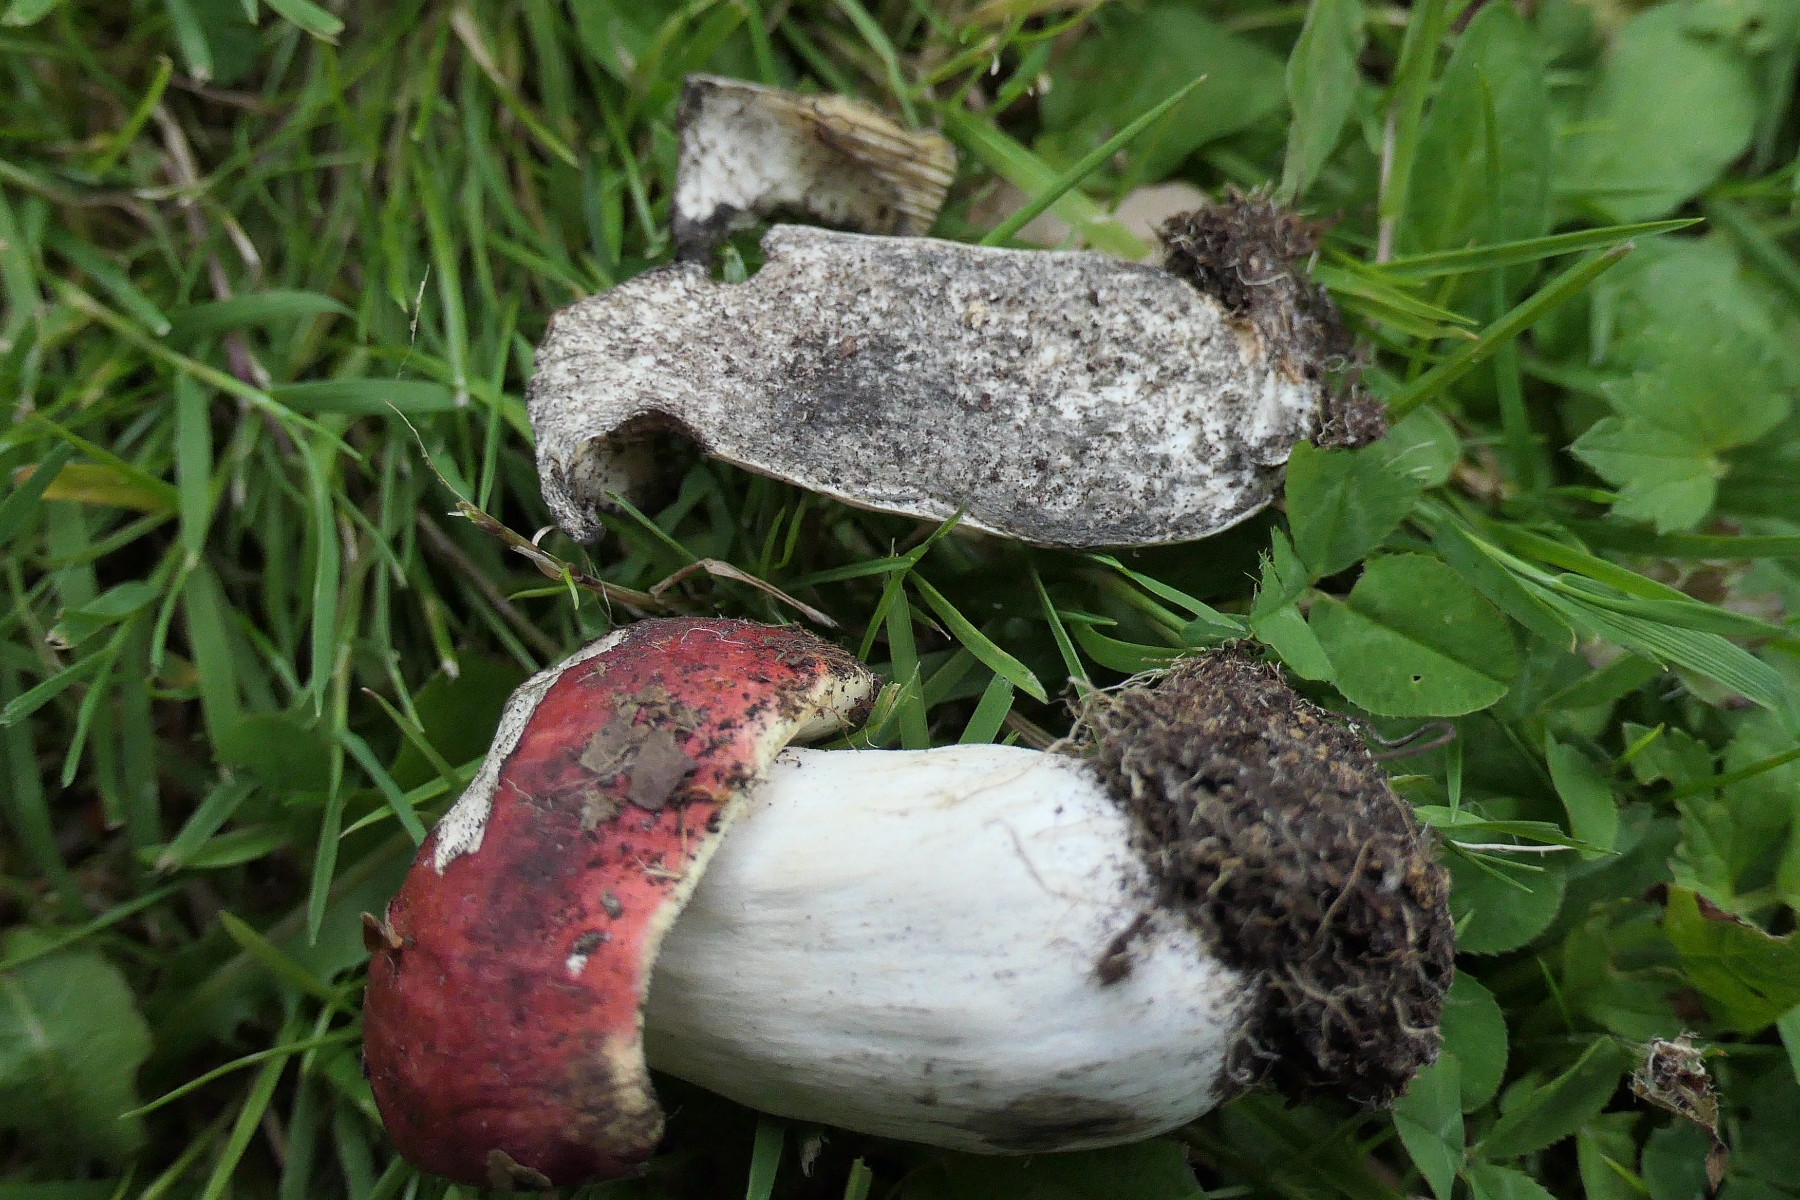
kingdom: Fungi
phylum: Basidiomycota
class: Agaricomycetes
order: Russulales
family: Russulaceae
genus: Russula
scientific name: Russula seperina
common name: rødmende skørhat
